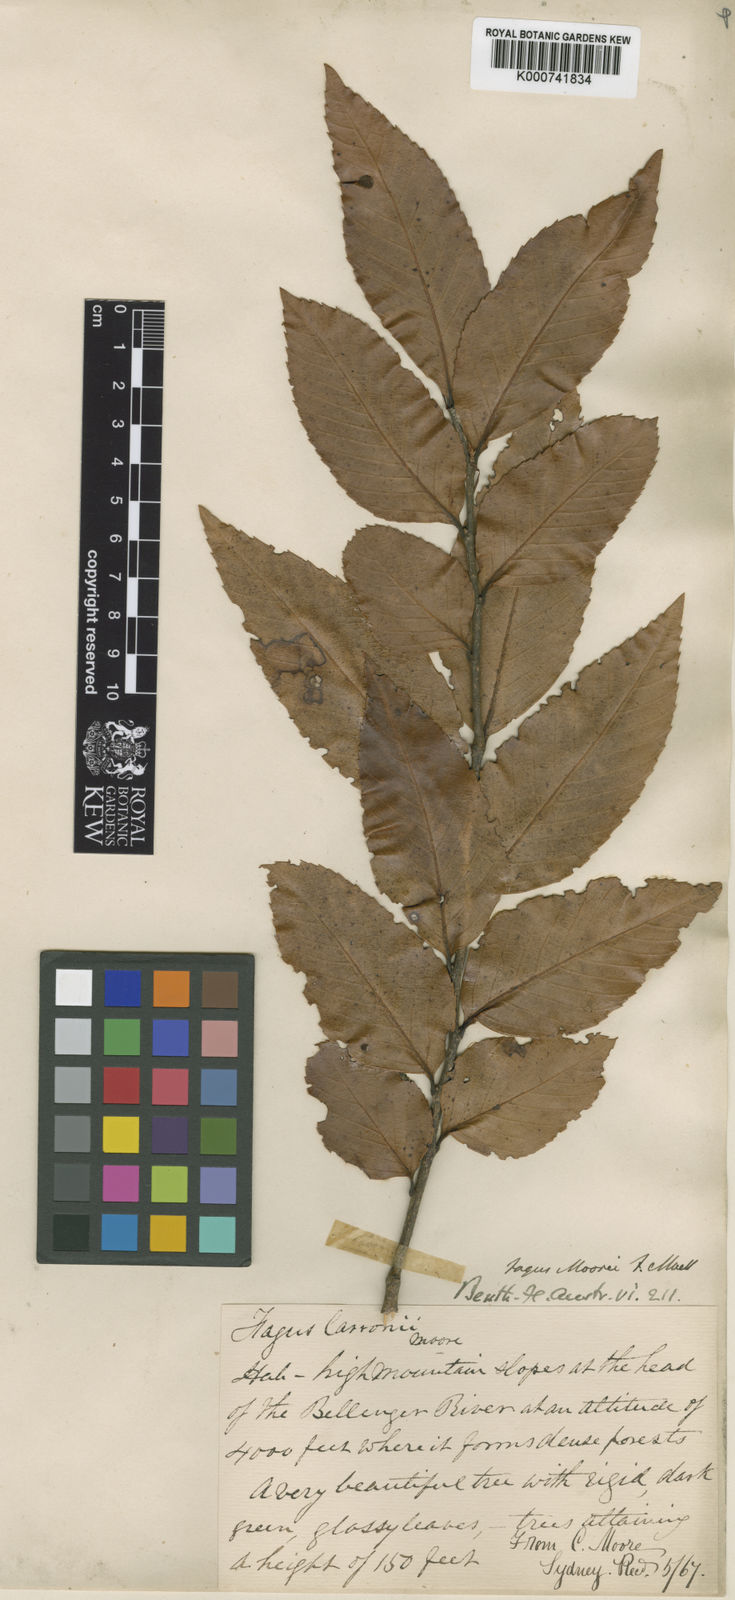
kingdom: Plantae
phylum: Tracheophyta
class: Magnoliopsida
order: Fagales
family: Nothofagaceae
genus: Nothofagus
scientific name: Nothofagus moorei
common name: Antarctic beech
